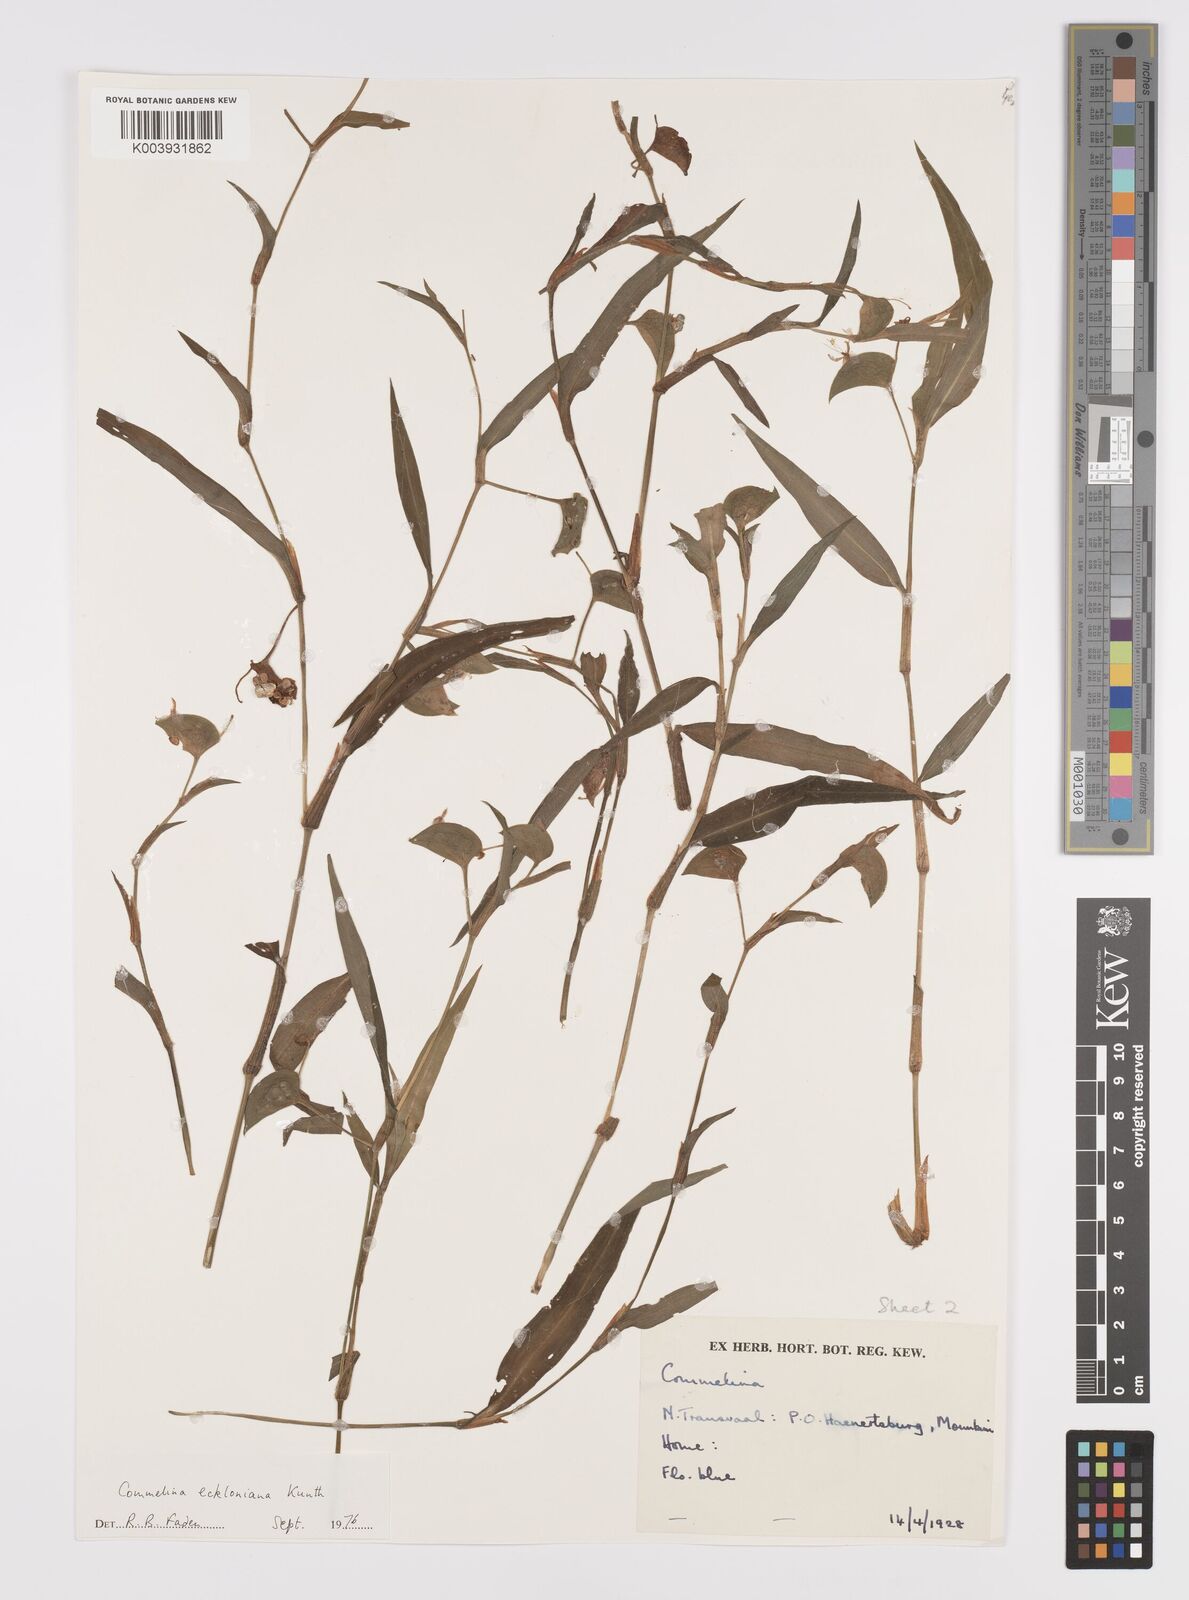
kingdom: Plantae
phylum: Tracheophyta
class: Liliopsida
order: Commelinales
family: Commelinaceae
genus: Commelina
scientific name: Commelina eckloniana
